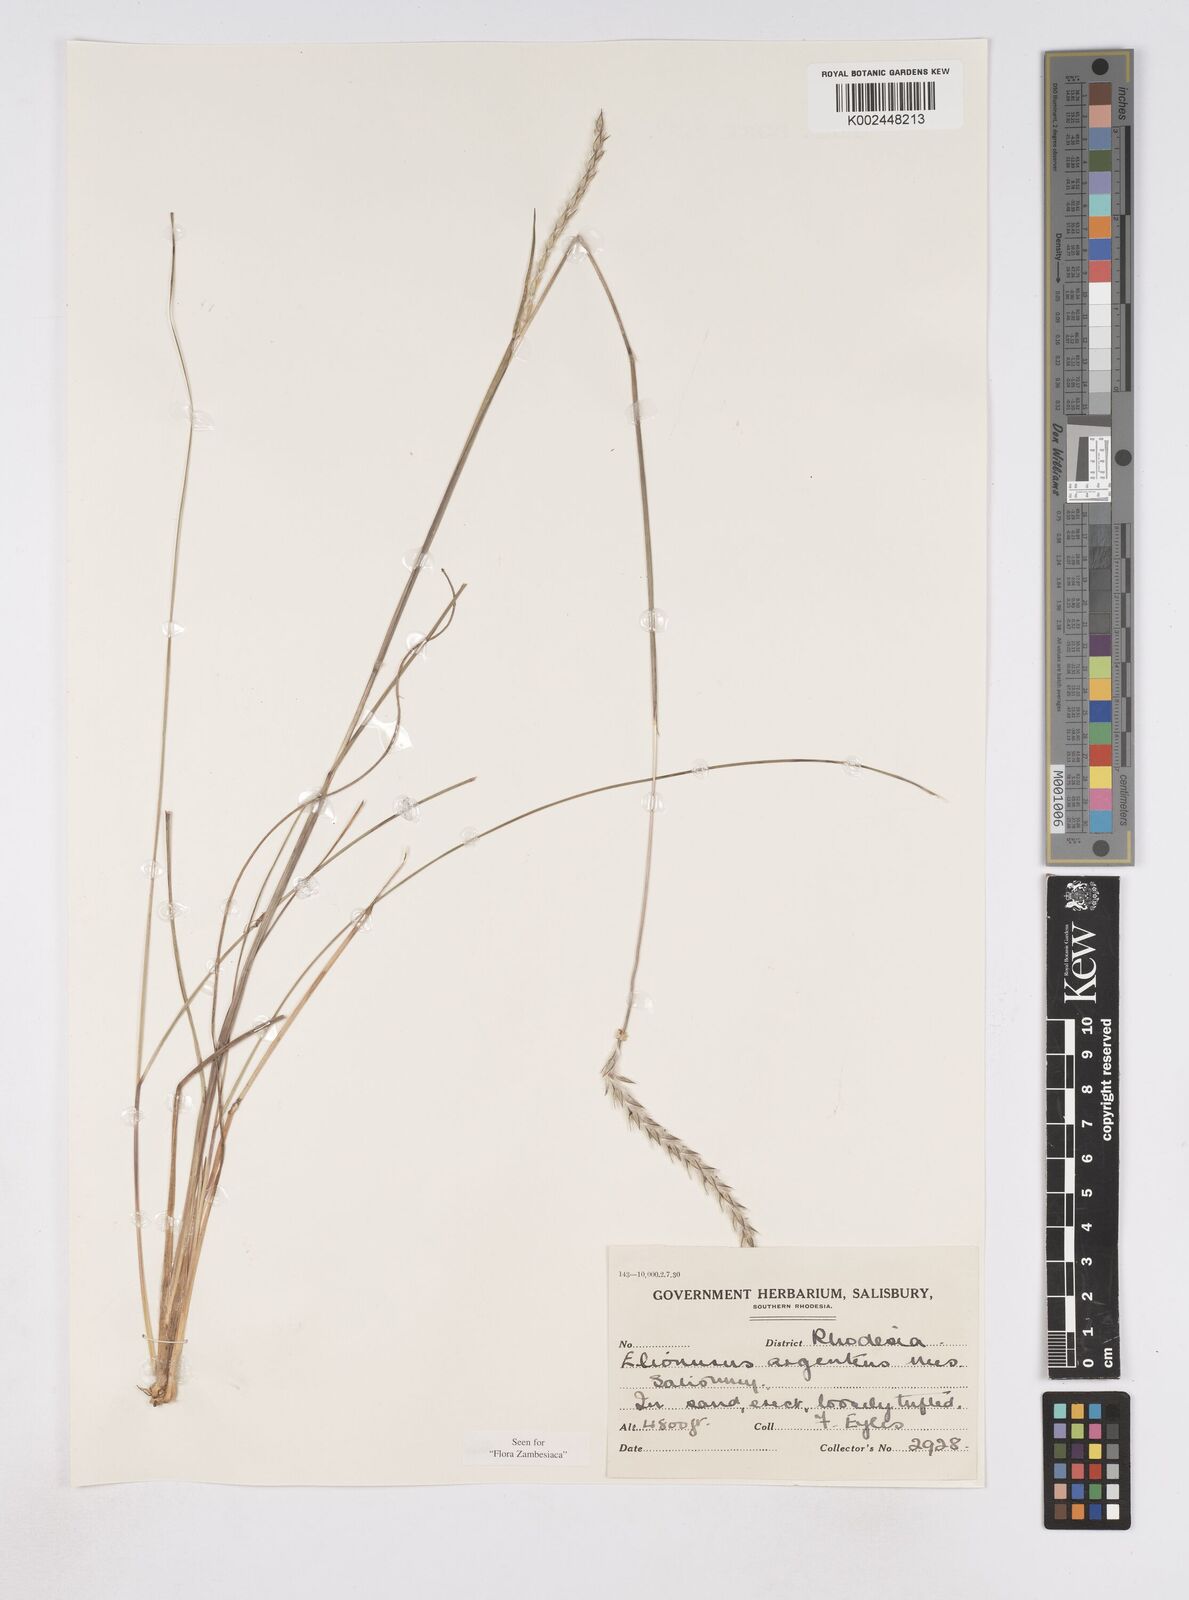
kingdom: Plantae
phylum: Tracheophyta
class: Liliopsida
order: Poales
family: Poaceae
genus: Elionurus
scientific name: Elionurus muticus
